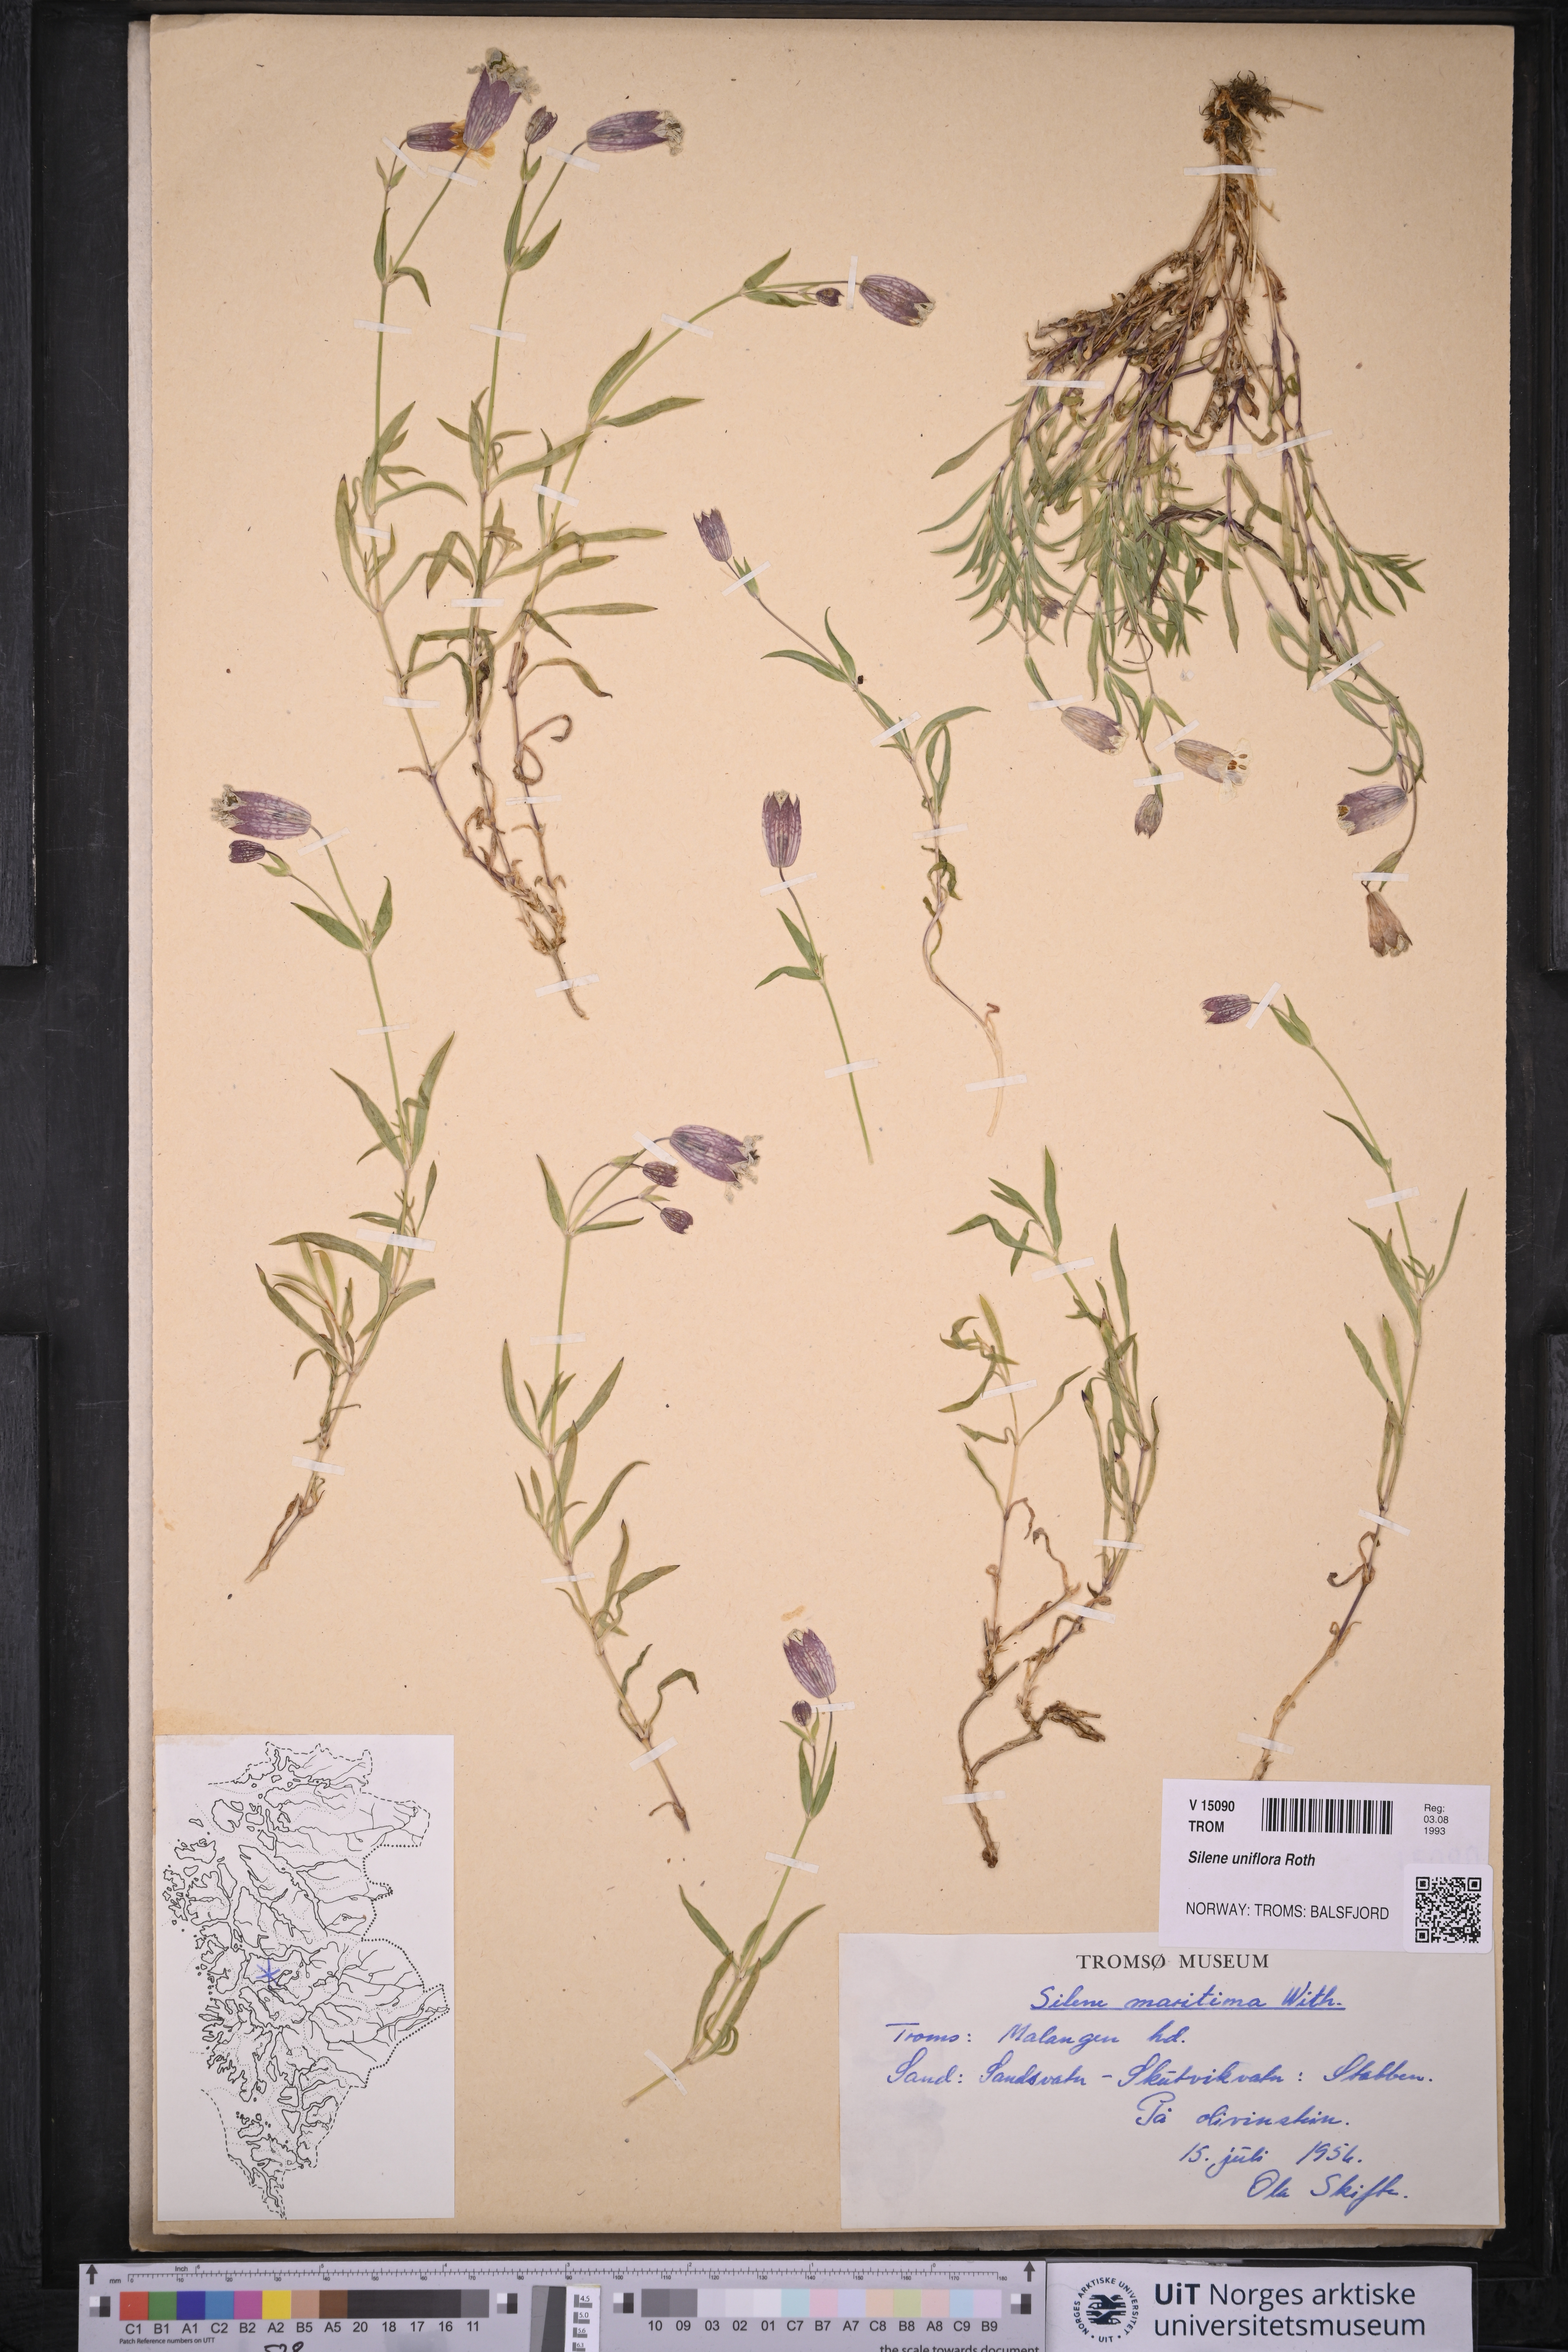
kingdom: Plantae
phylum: Tracheophyta
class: Magnoliopsida
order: Caryophyllales
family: Caryophyllaceae
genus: Silene
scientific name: Silene uniflora
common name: Sea campion
